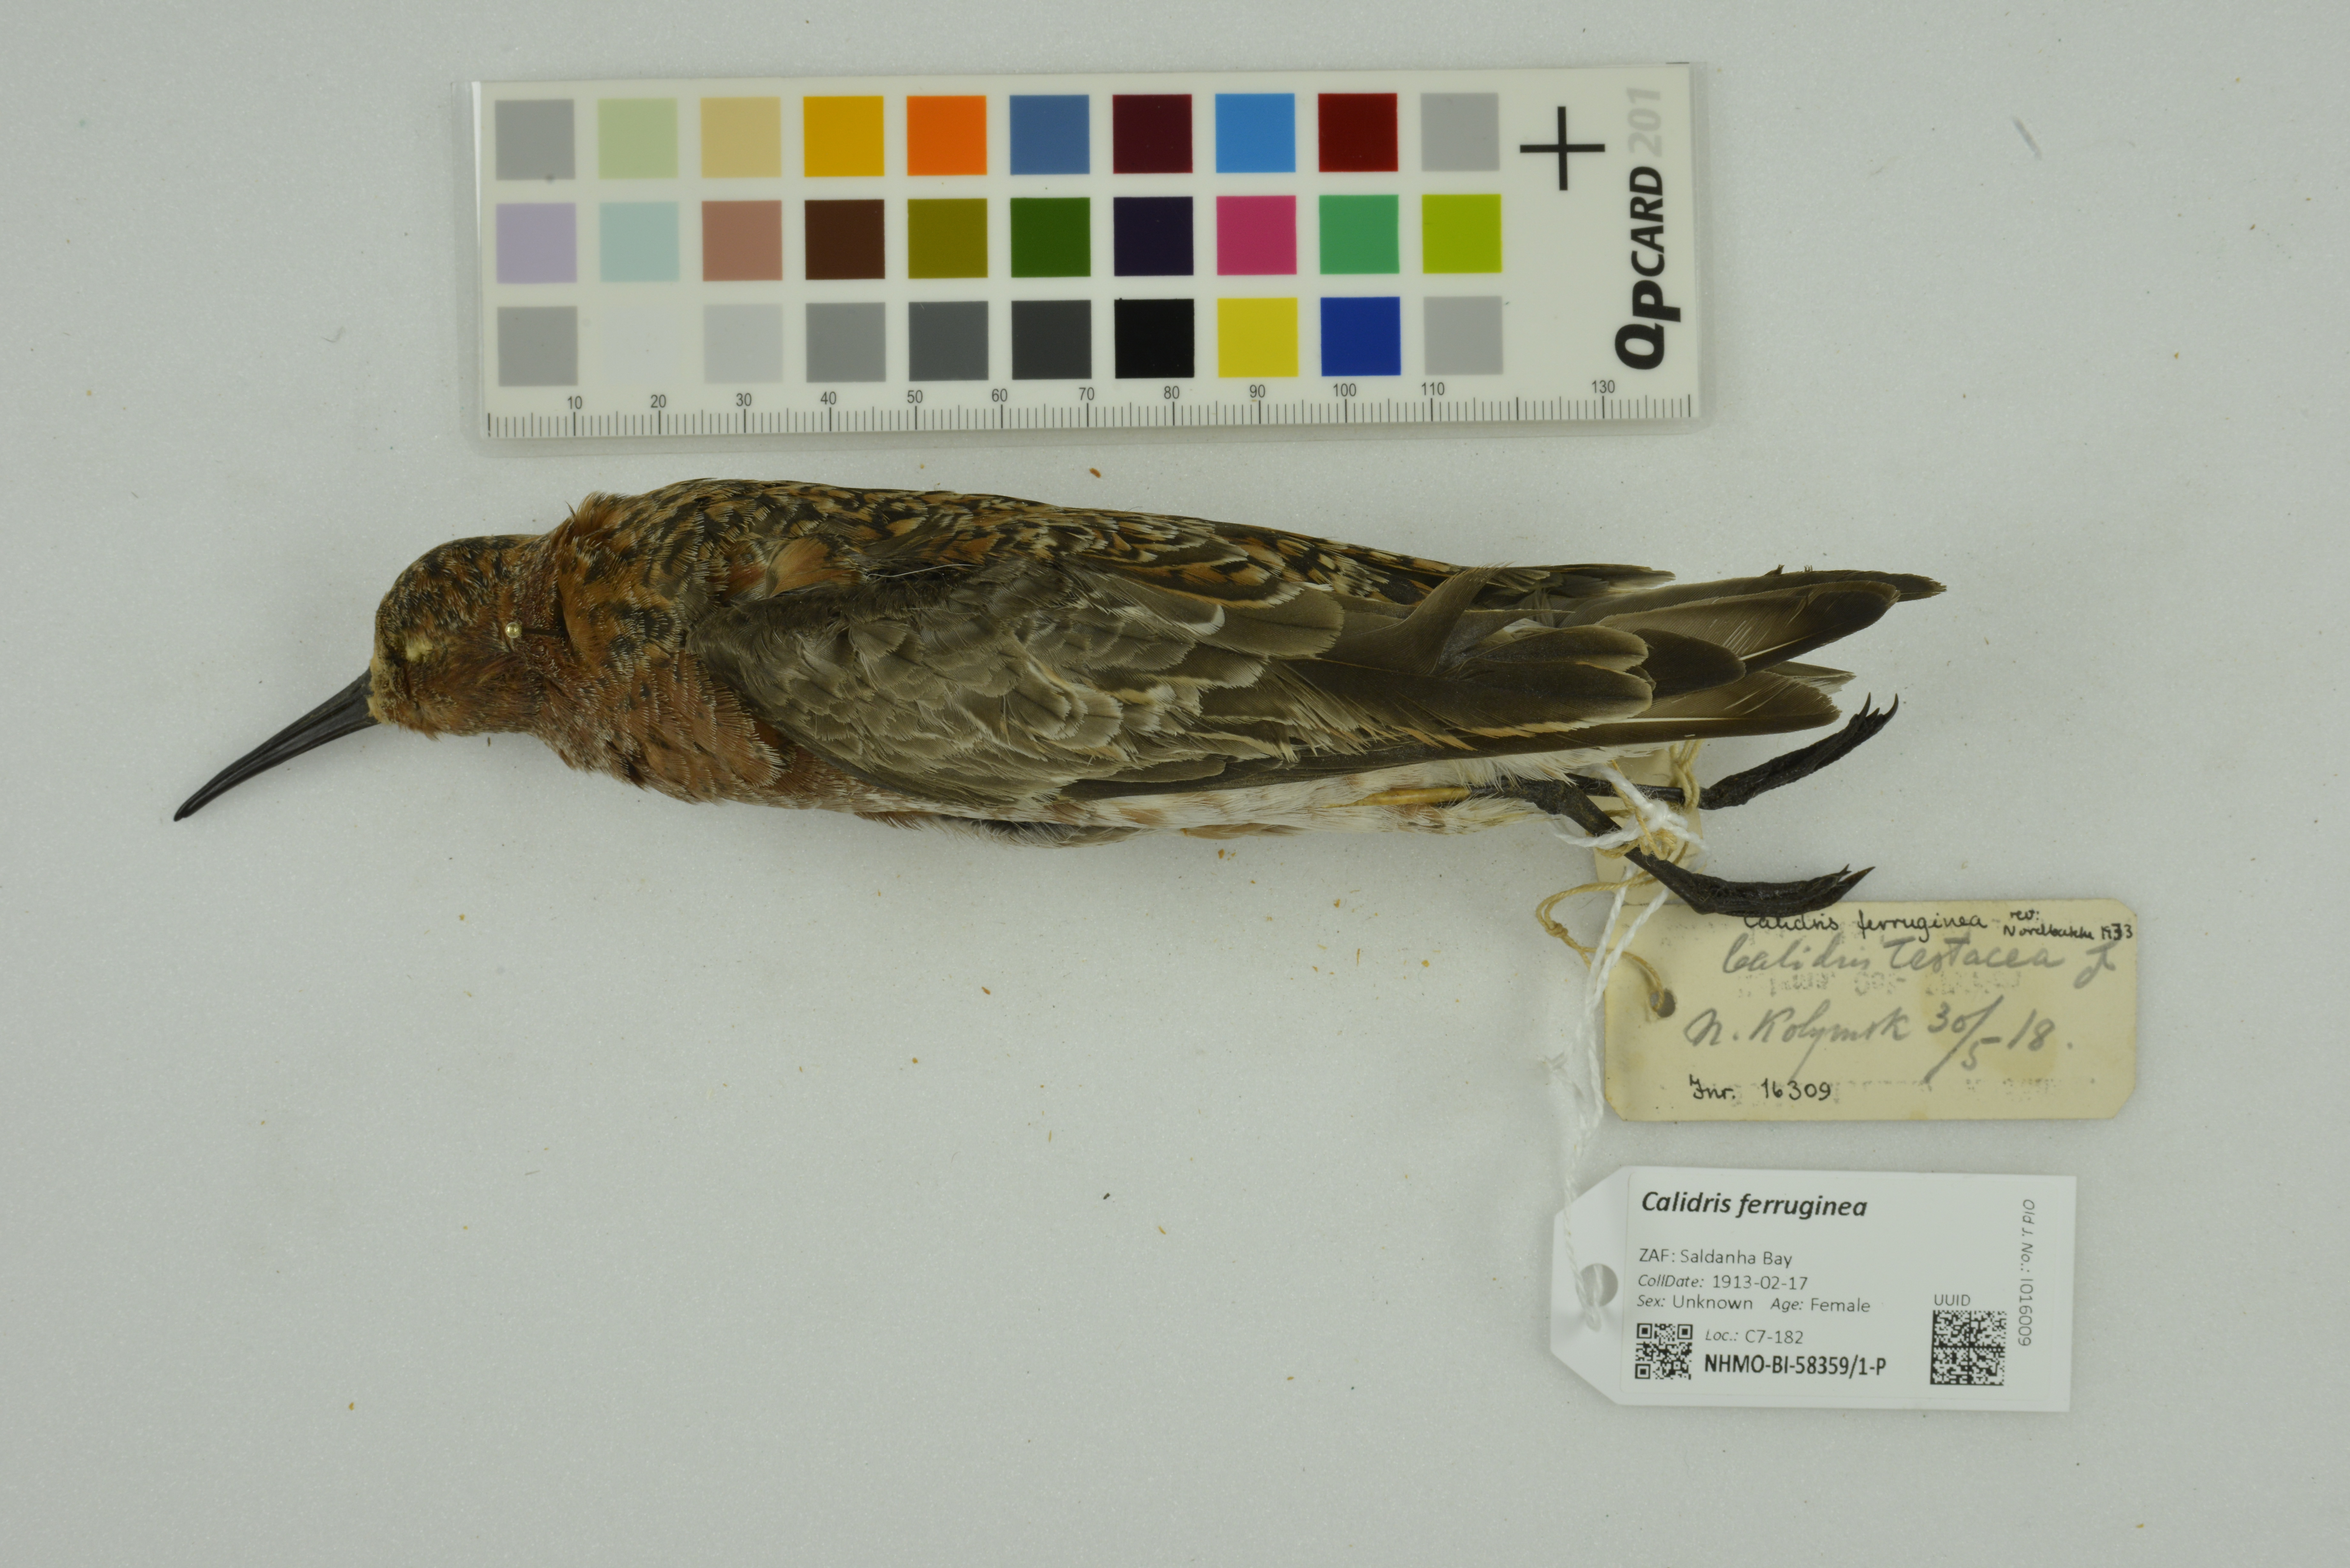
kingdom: Animalia
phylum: Chordata
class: Aves
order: Charadriiformes
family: Scolopacidae
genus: Calidris
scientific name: Calidris ferruginea
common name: Curlew sandpiper
